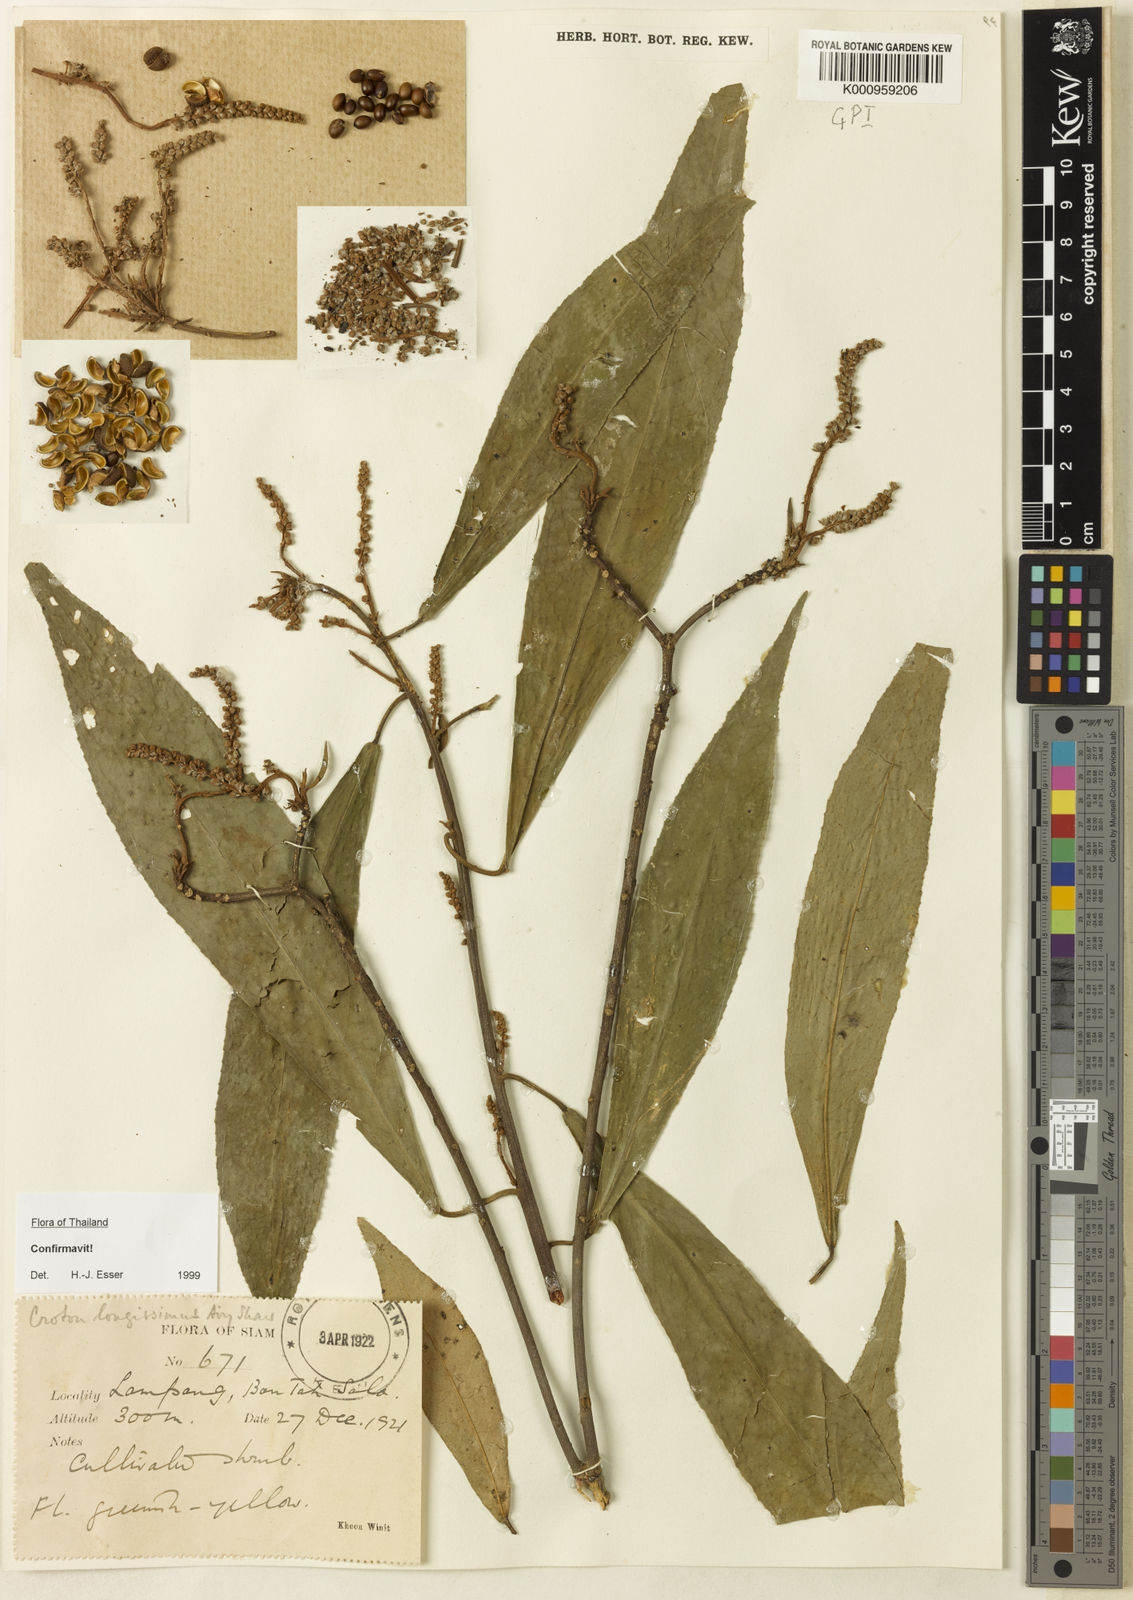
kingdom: Plantae
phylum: Tracheophyta
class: Magnoliopsida
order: Malpighiales
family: Euphorbiaceae
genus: Croton
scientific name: Croton longissimus
